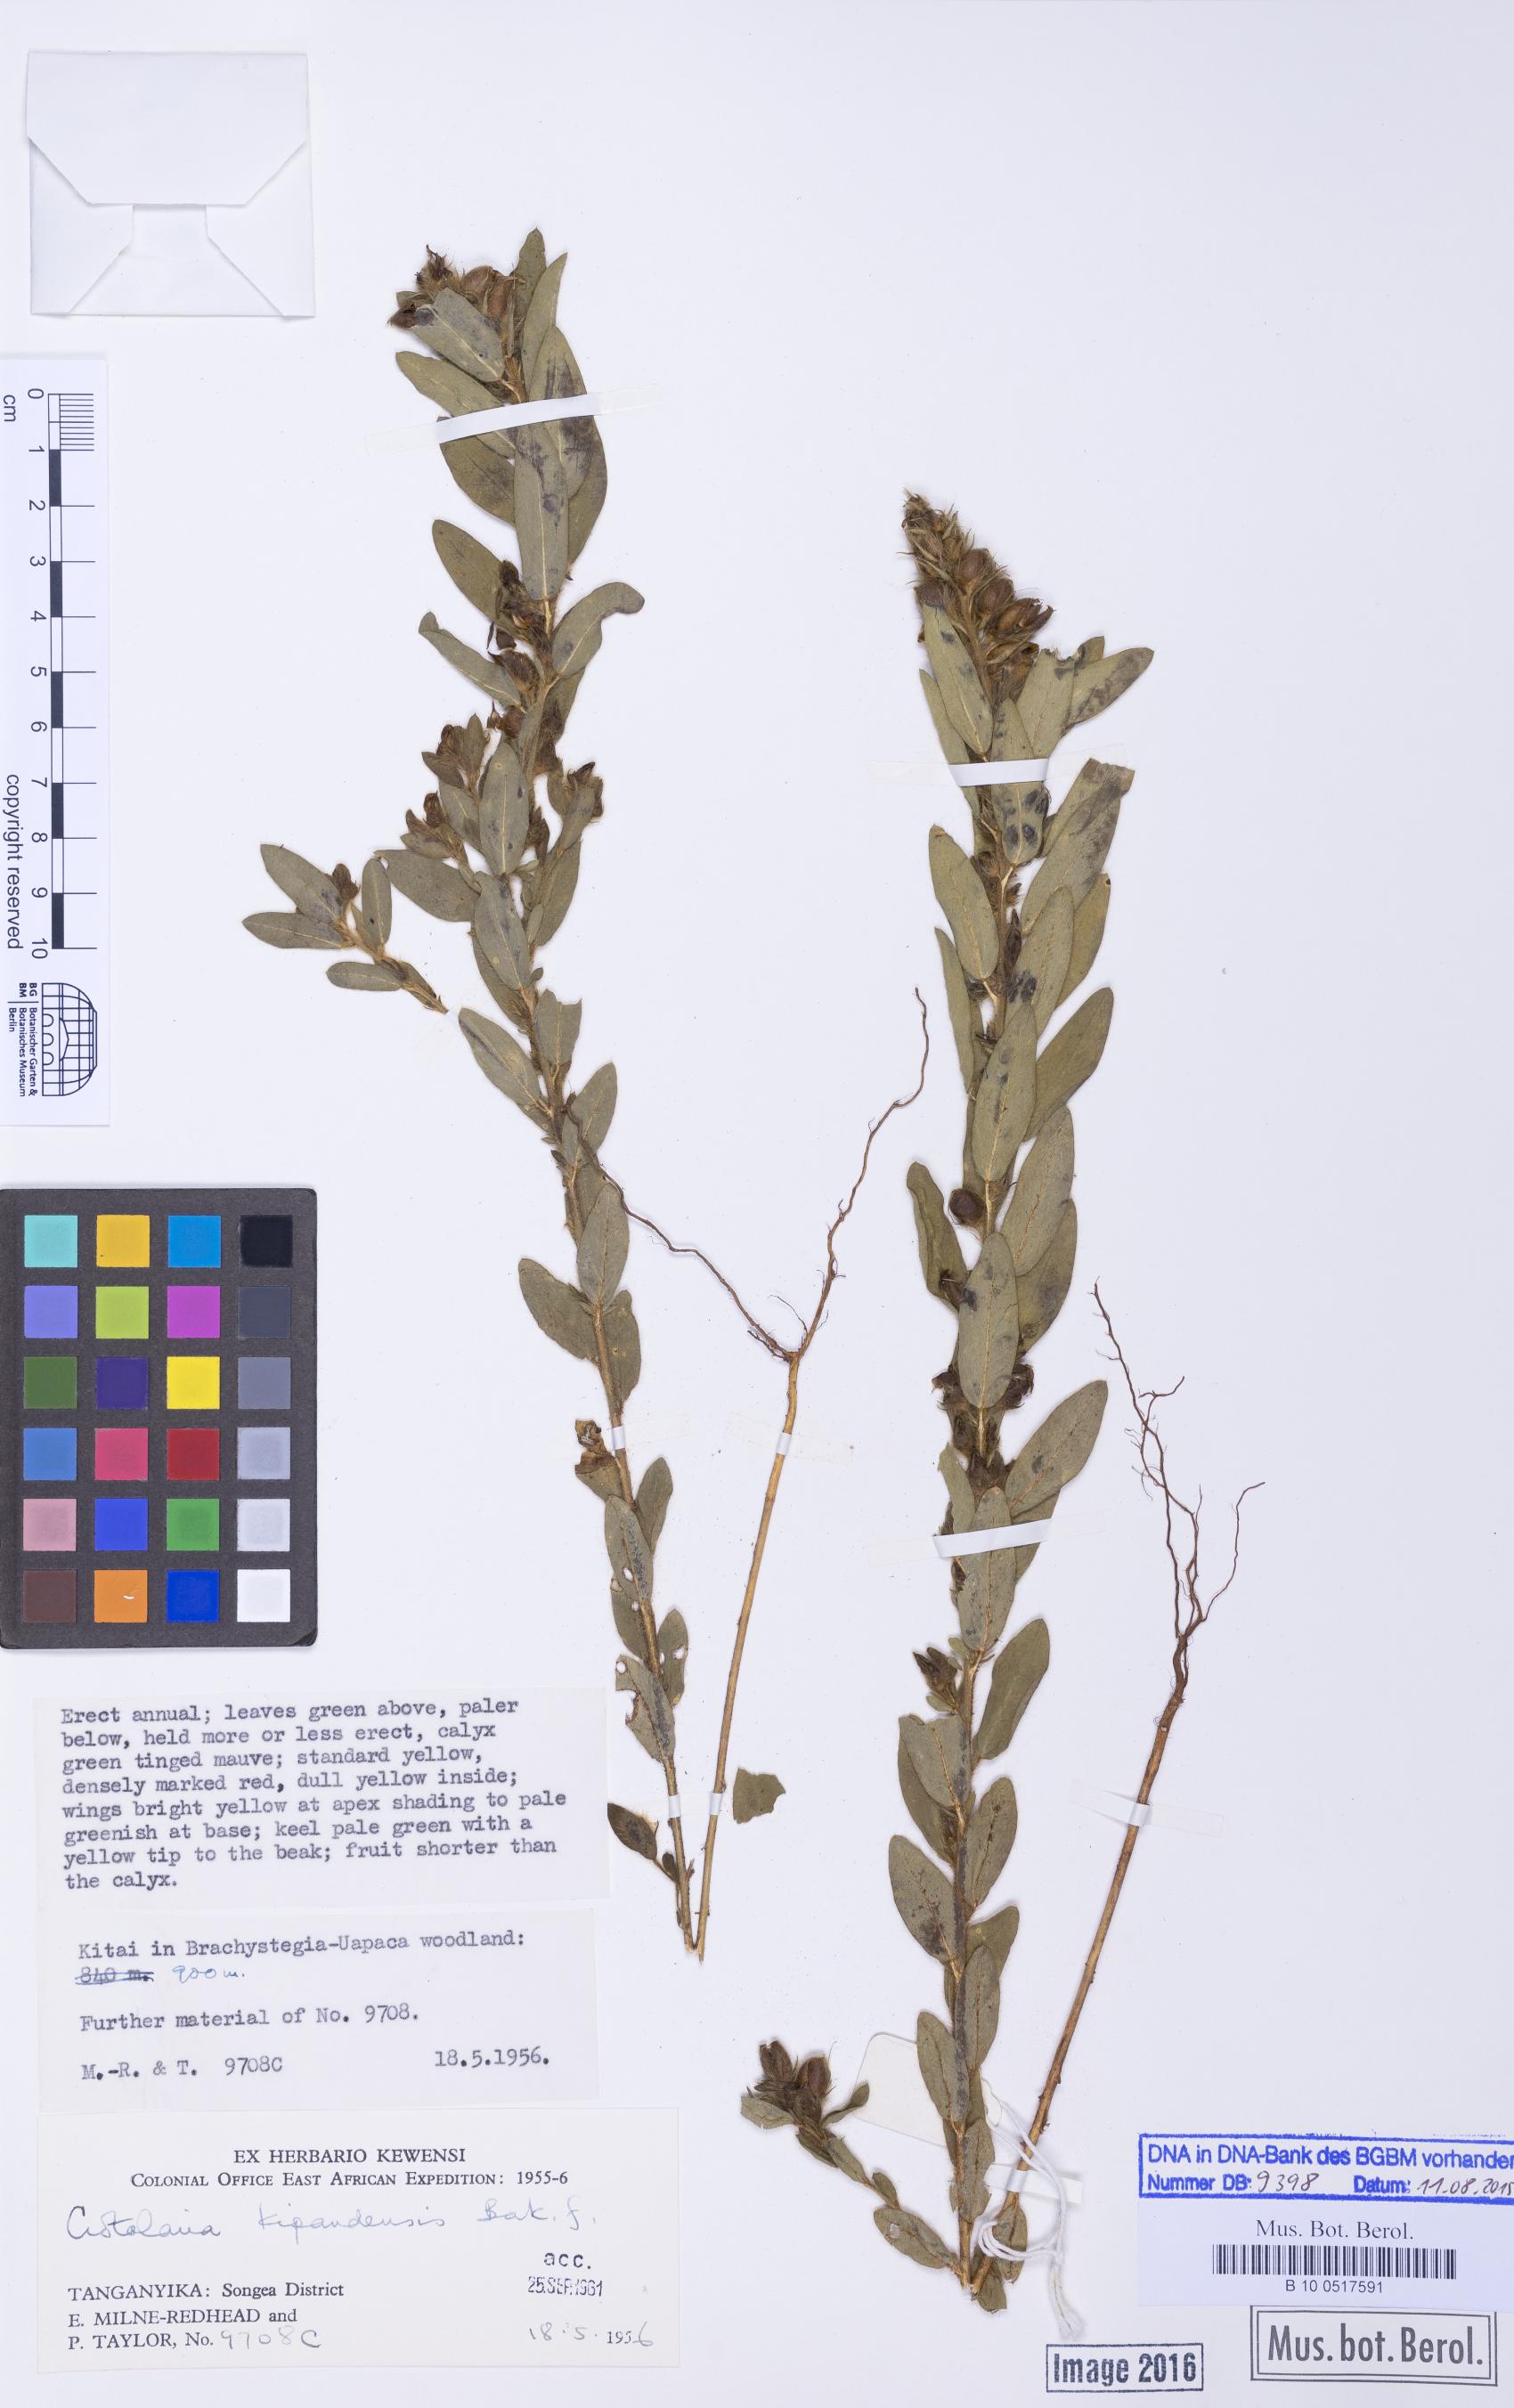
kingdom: Plantae
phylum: Tracheophyta
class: Magnoliopsida
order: Fabales
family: Fabaceae
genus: Crotalaria
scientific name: Crotalaria kipandensis
